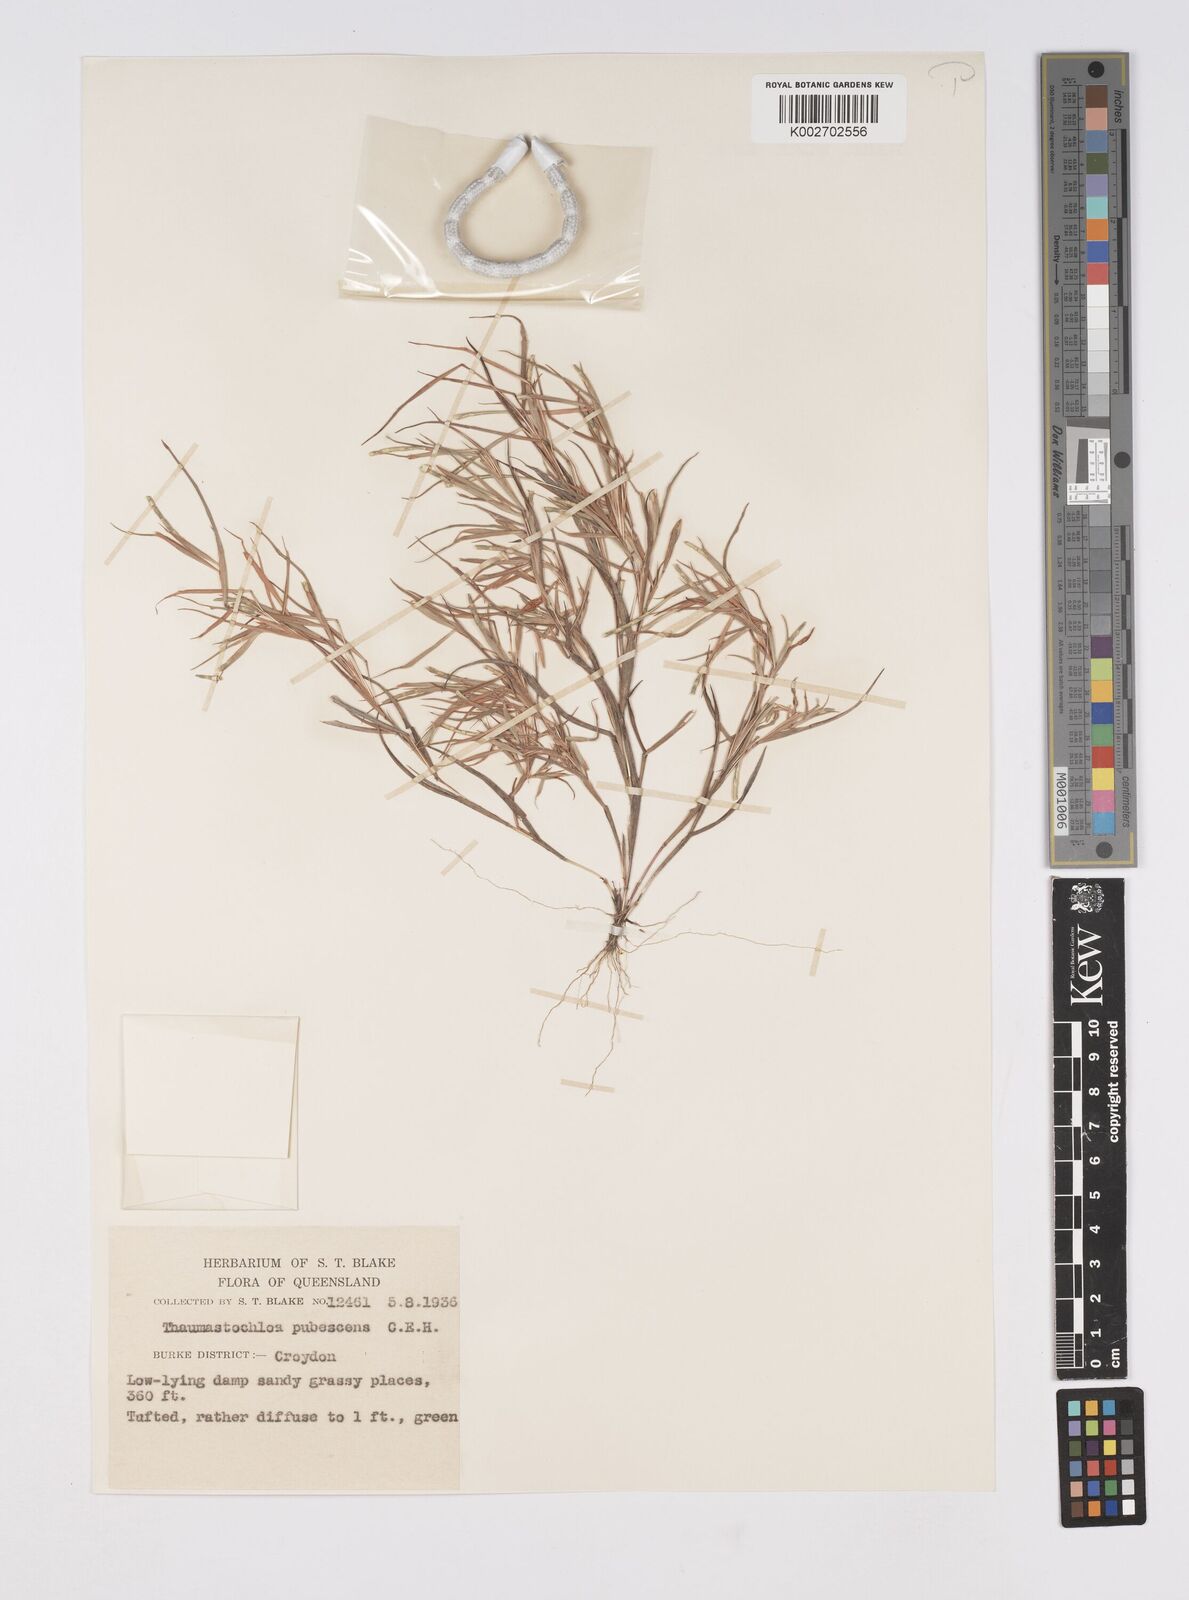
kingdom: Plantae
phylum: Tracheophyta
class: Liliopsida
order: Poales
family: Poaceae
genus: Thaumastochloa
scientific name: Thaumastochloa pubescens
